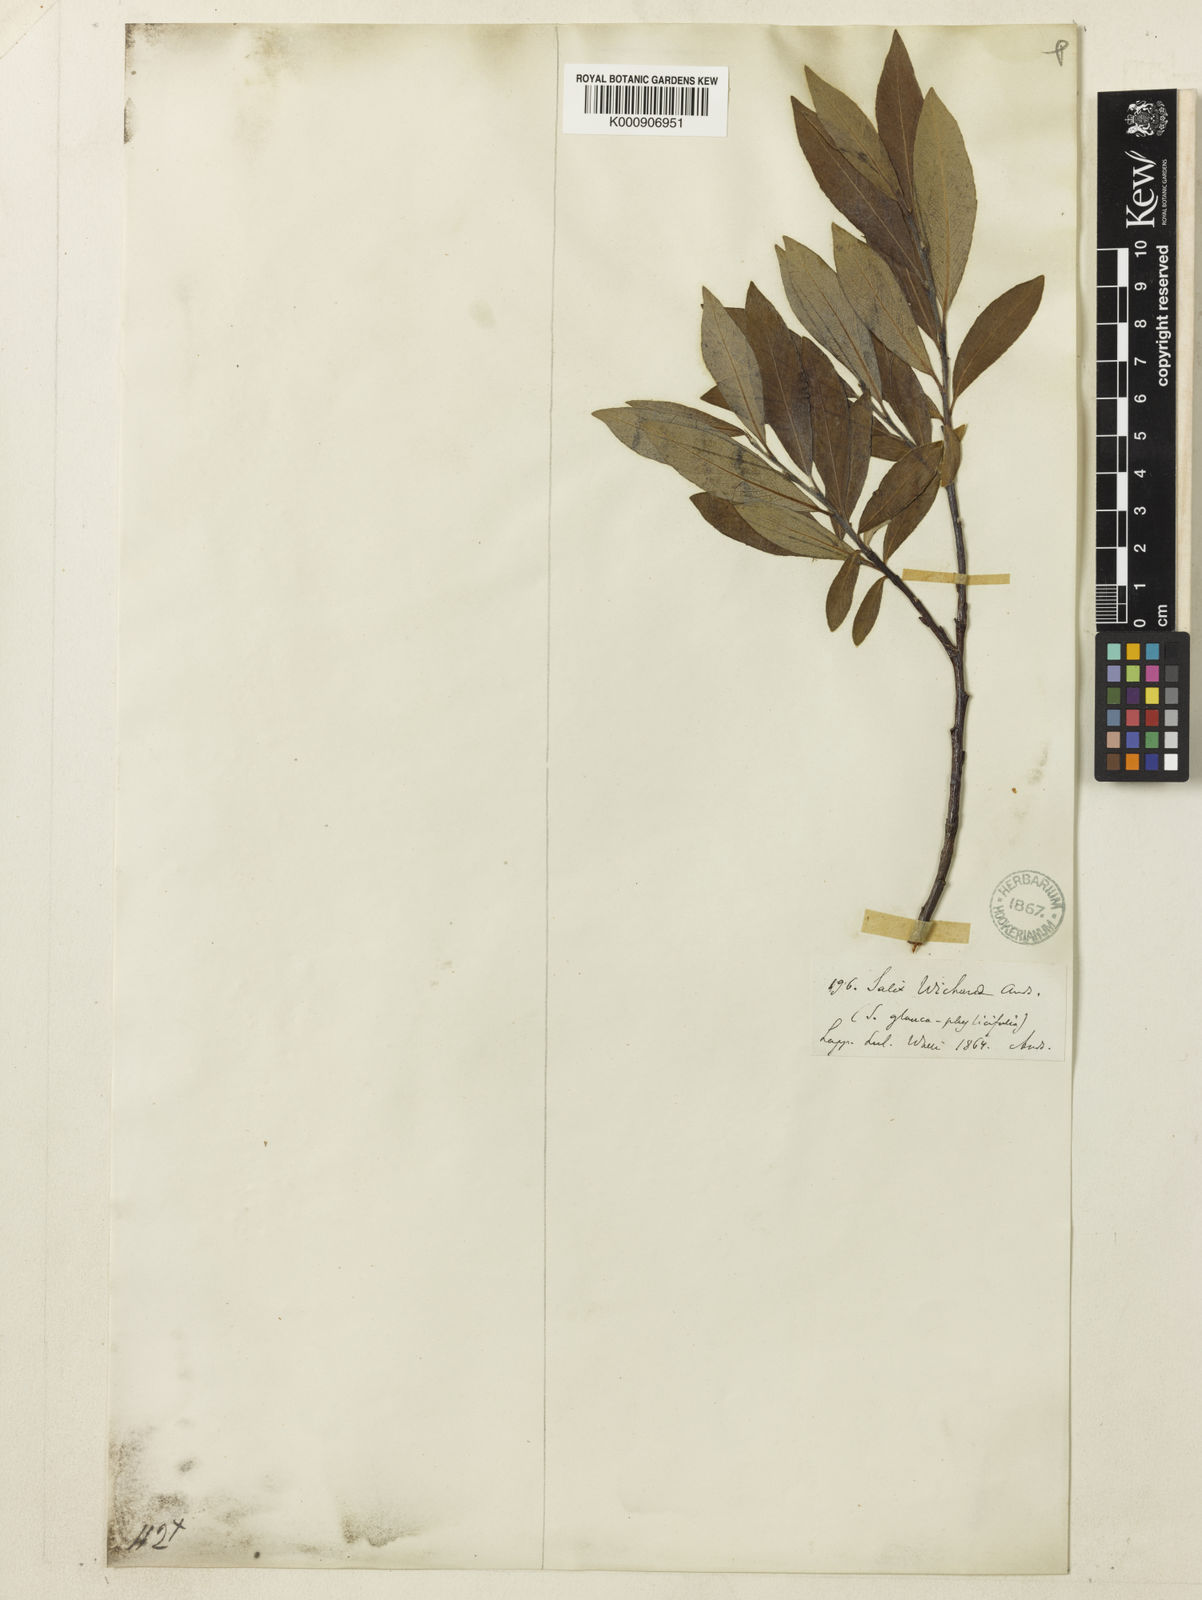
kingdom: Plantae
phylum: Tracheophyta
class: Magnoliopsida
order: Malpighiales
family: Salicaceae
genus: Salix
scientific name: Salix glauca
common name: Glaucous willow
